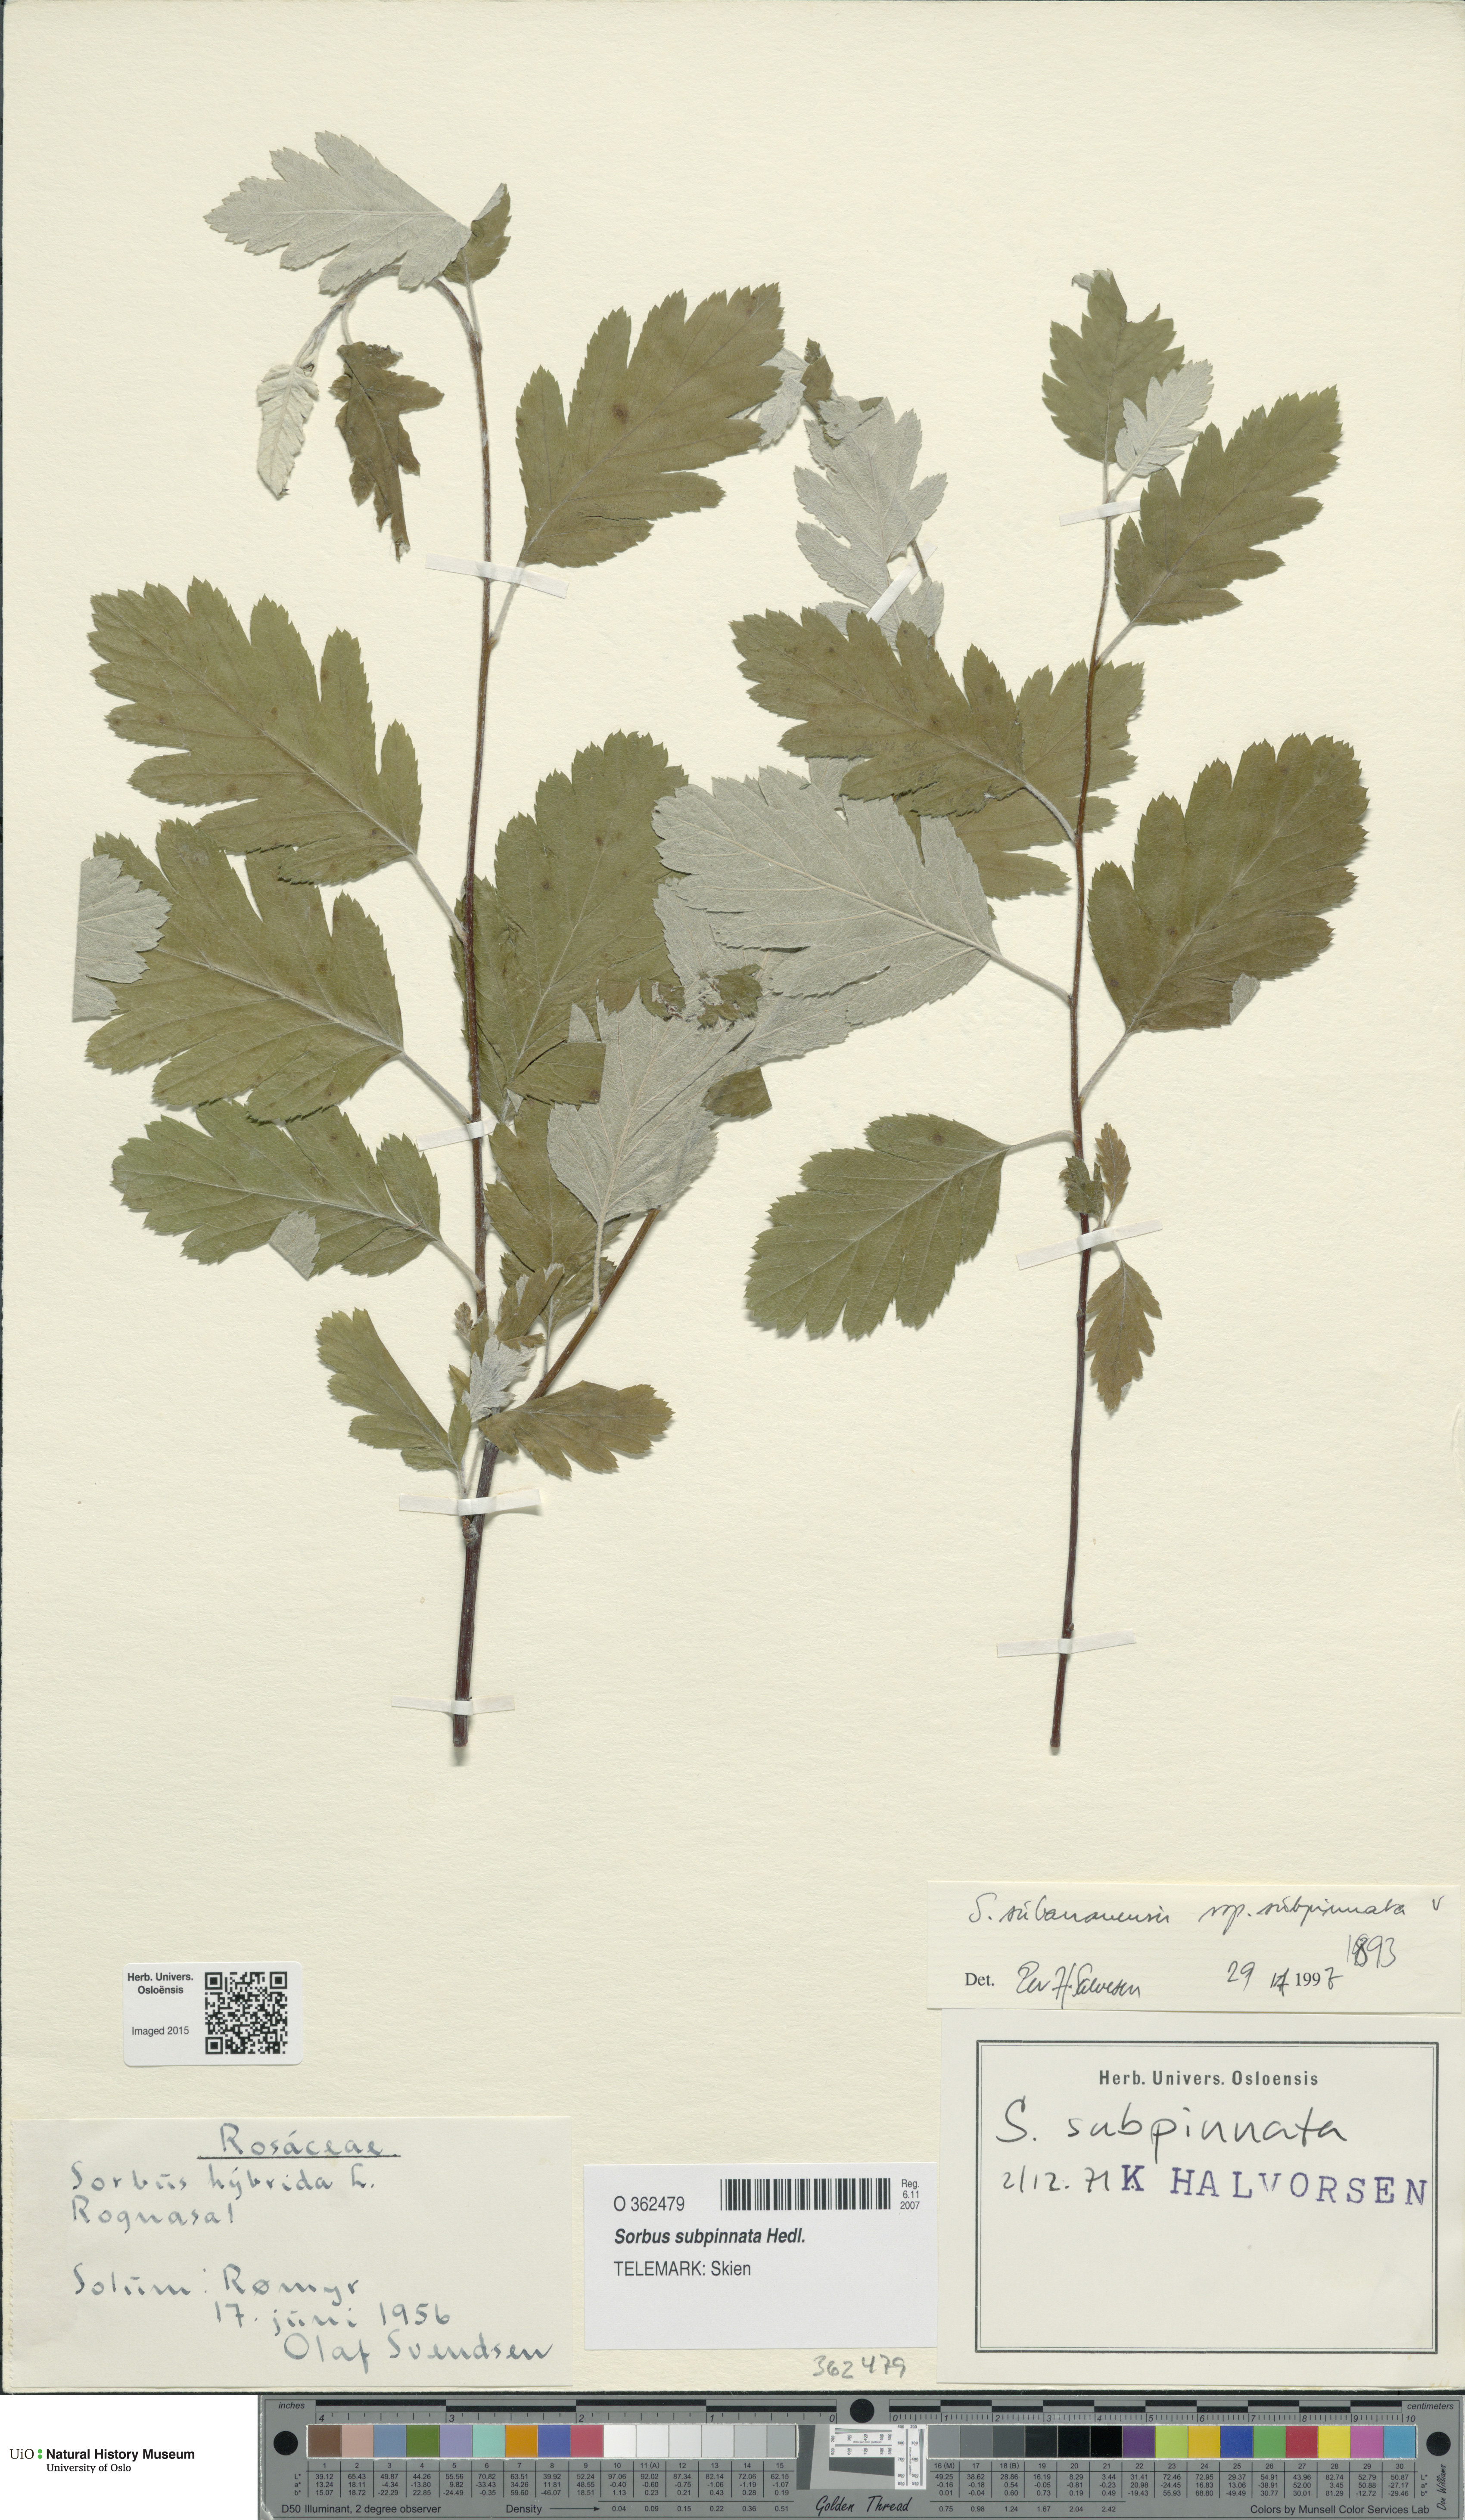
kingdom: Plantae
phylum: Tracheophyta
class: Magnoliopsida
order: Rosales
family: Rosaceae
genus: Hedlundia
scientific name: Hedlundia subpinnata
